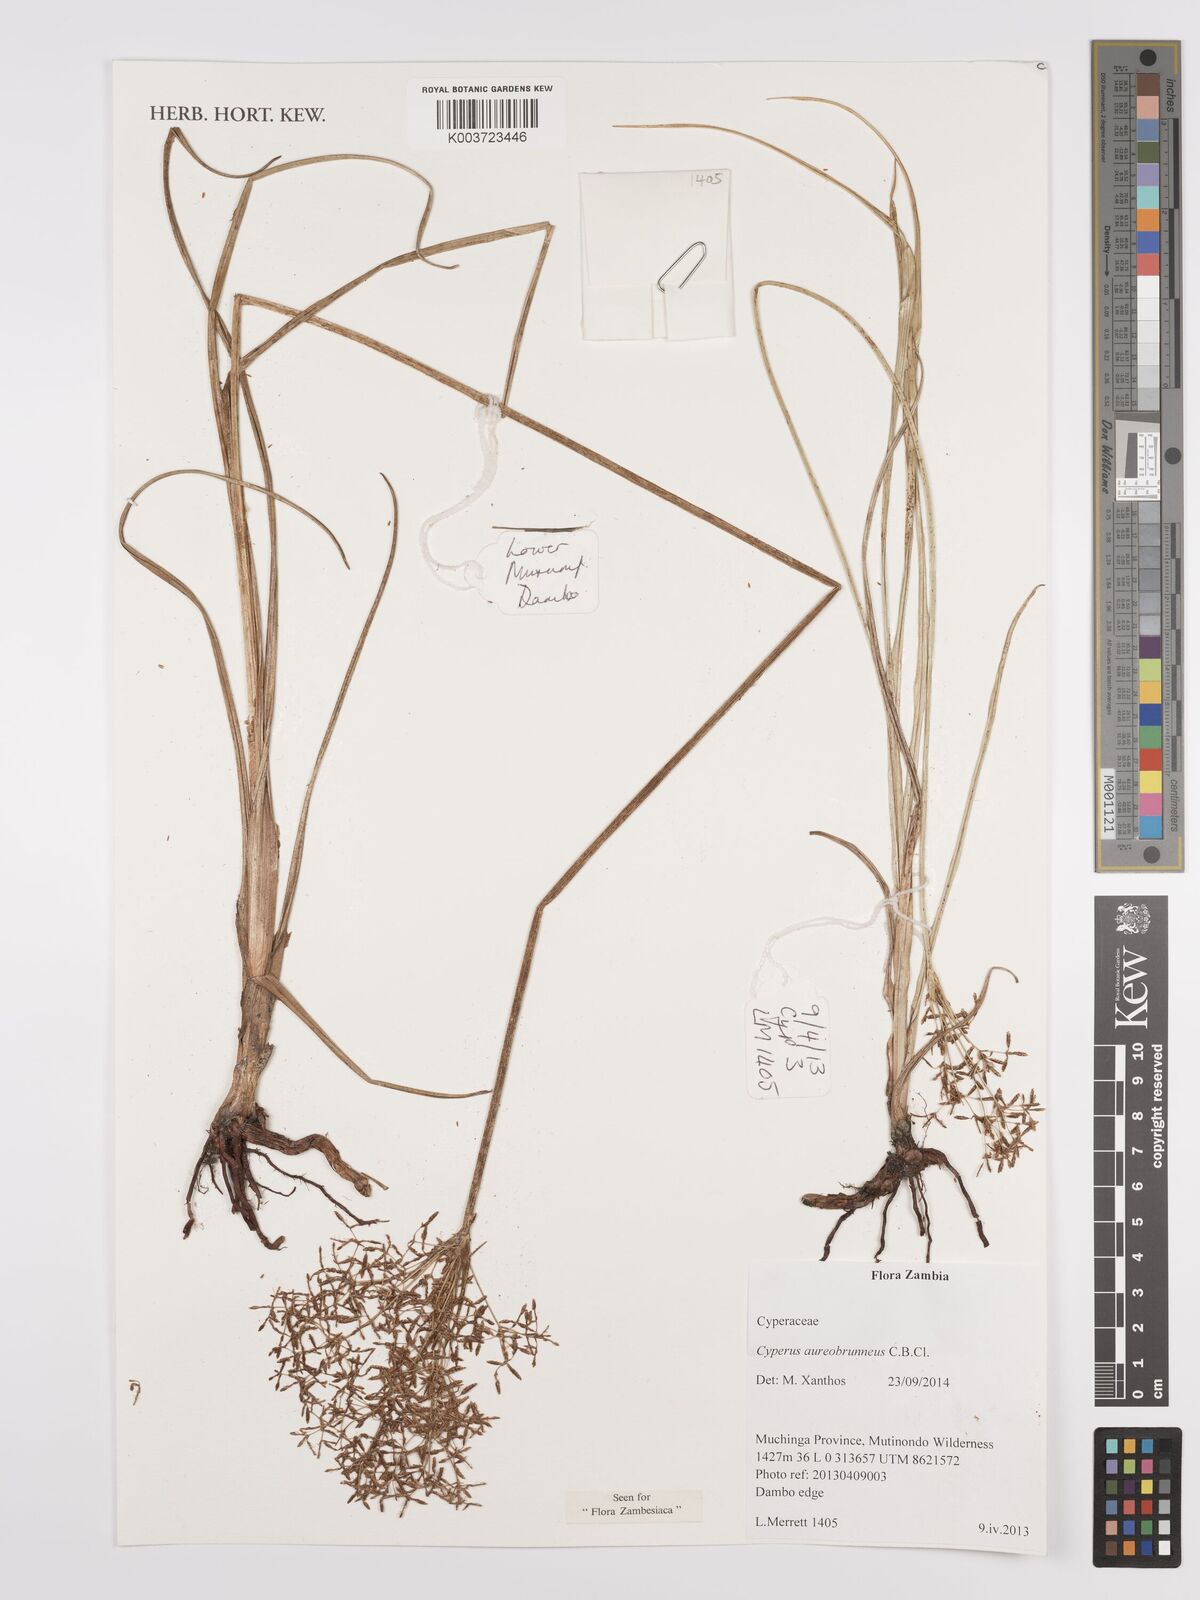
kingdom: Plantae
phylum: Tracheophyta
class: Liliopsida
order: Poales
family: Cyperaceae
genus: Cyperus
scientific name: Cyperus aureobrunneus
